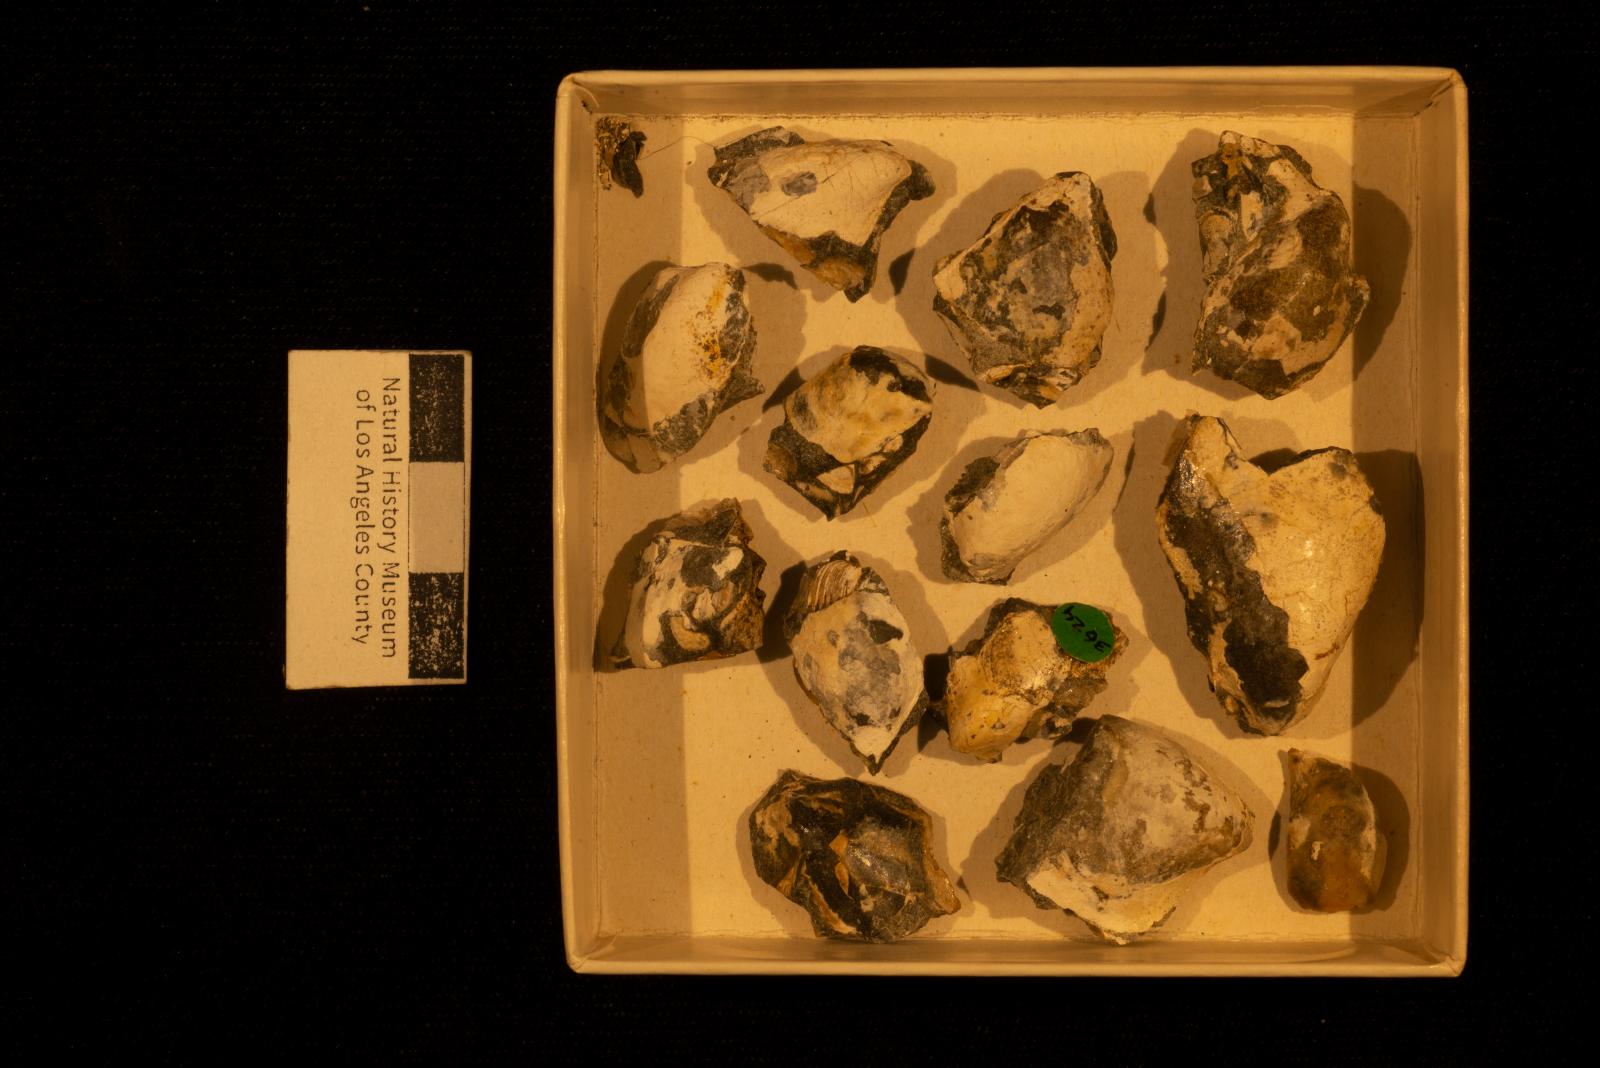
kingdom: Animalia
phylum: Mollusca
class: Bivalvia
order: Ostreida
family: Pteriidae
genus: Pteria
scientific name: Pteria pellucida
